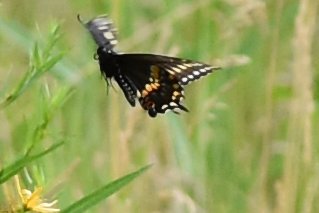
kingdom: Animalia
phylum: Arthropoda
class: Insecta
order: Lepidoptera
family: Papilionidae
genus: Papilio
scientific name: Papilio polyxenes
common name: Black Swallowtail
